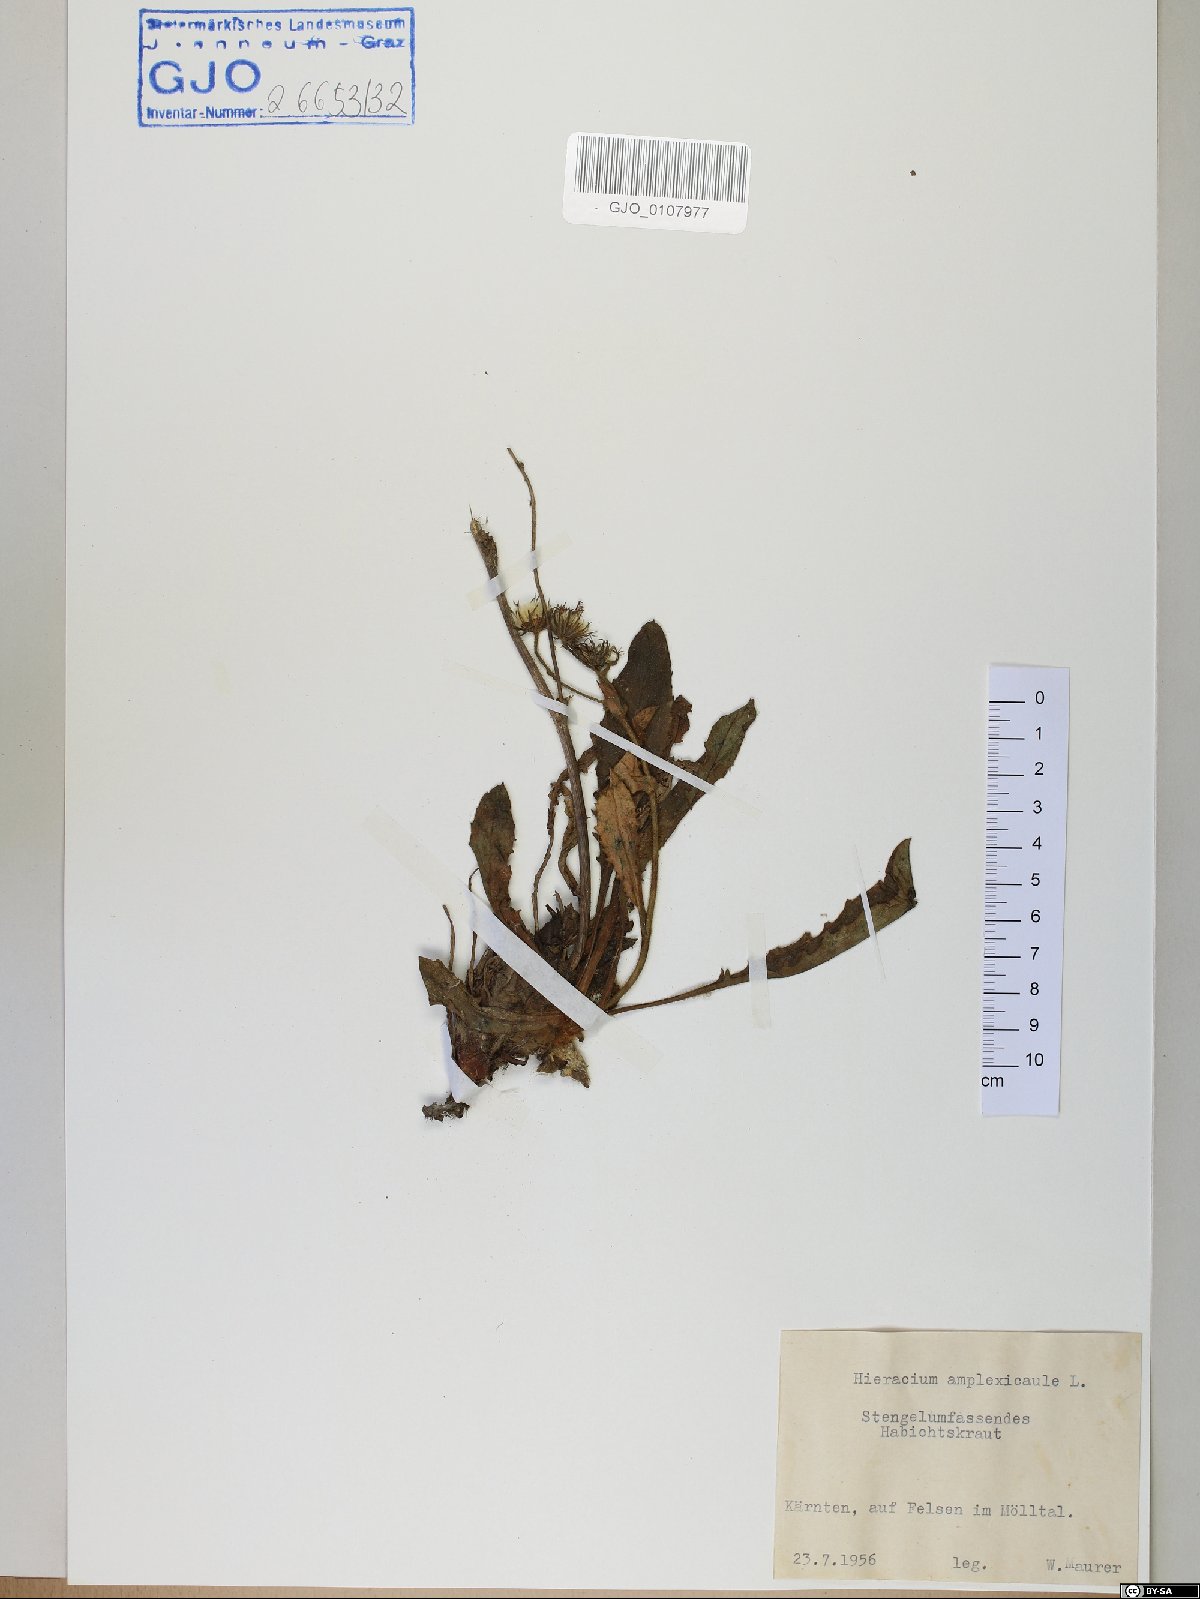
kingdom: Plantae
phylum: Tracheophyta
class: Magnoliopsida
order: Asterales
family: Asteraceae
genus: Hieracium
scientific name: Hieracium amplexicaule
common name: Sticky hawkweed
